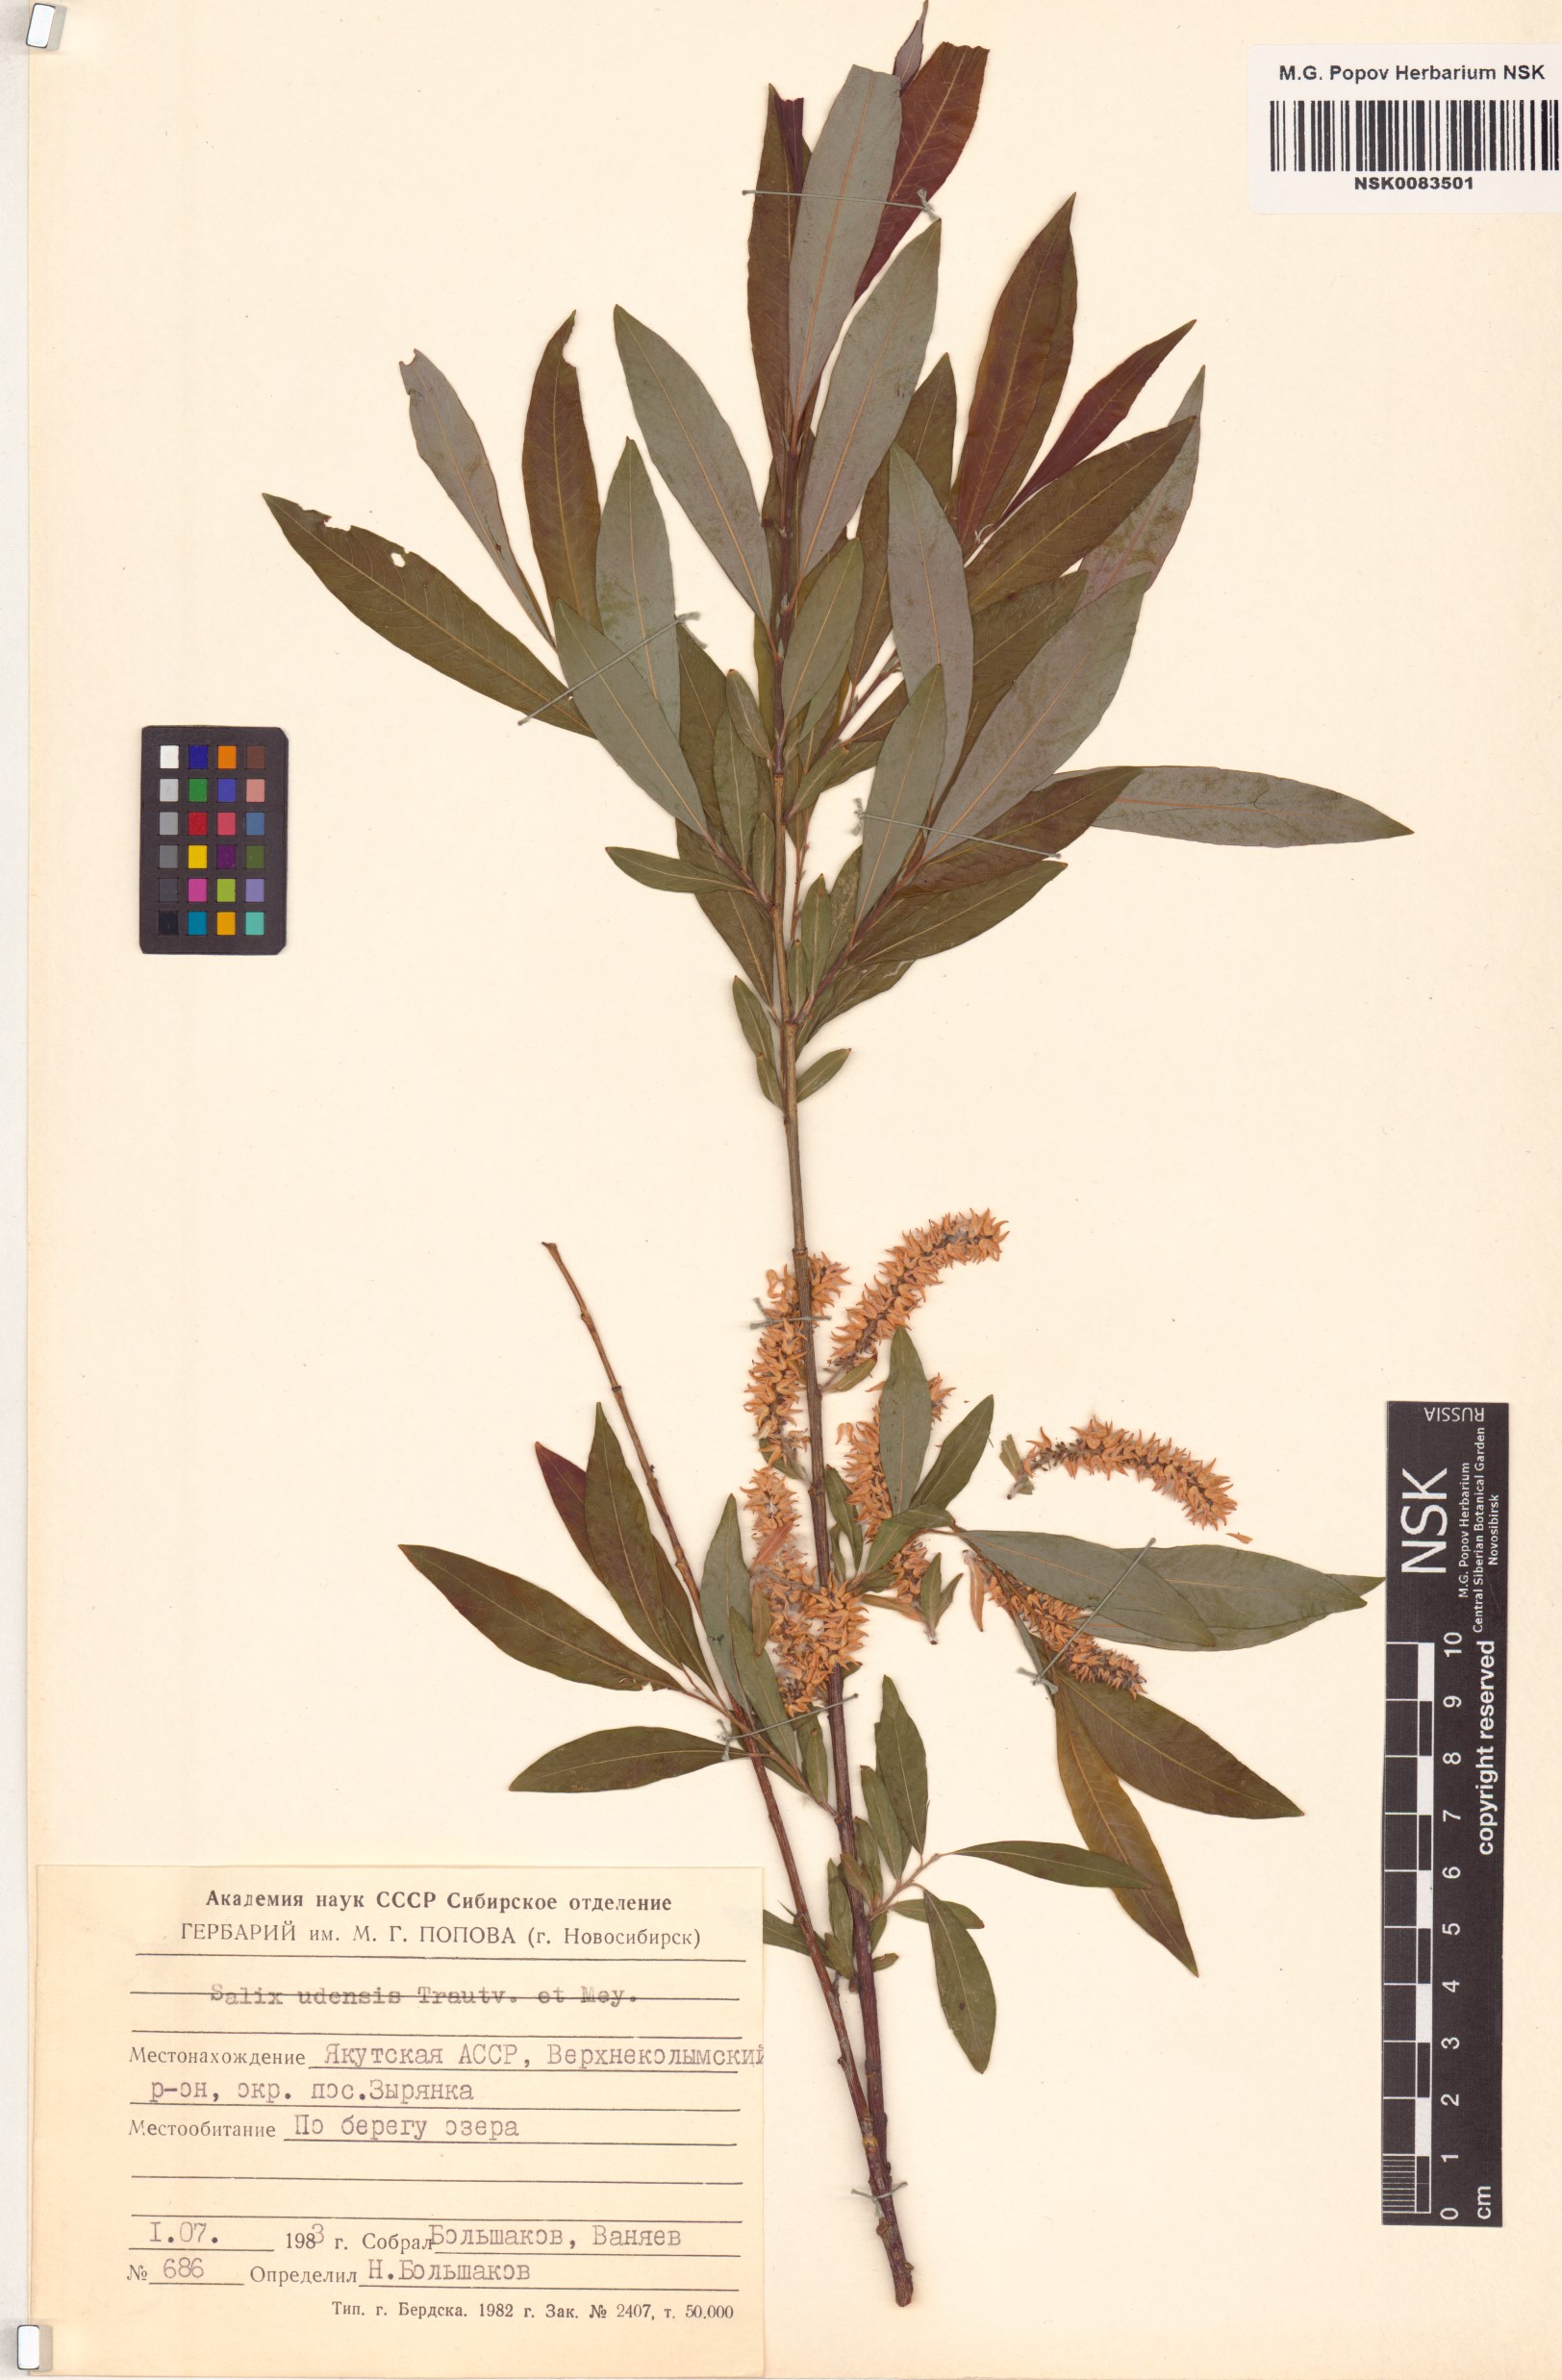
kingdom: Plantae
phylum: Tracheophyta
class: Magnoliopsida
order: Malpighiales
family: Salicaceae
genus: Salix
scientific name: Salix udensis
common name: Sachalin willow
